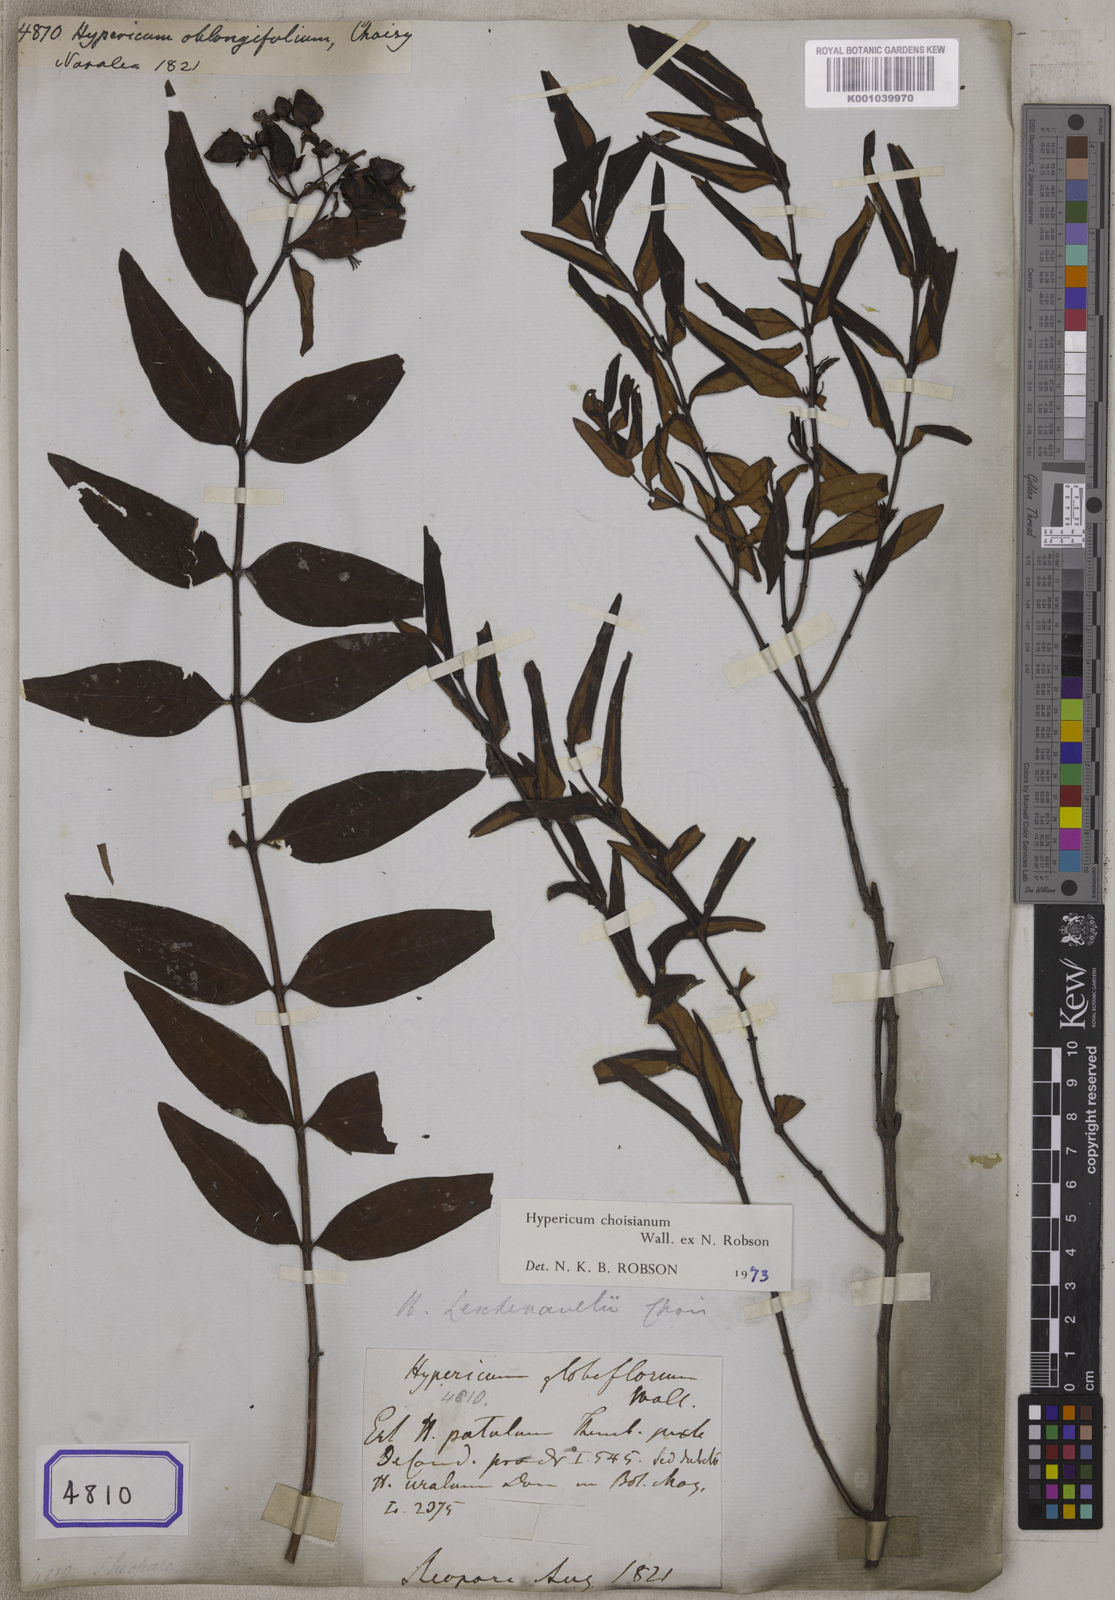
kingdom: Plantae
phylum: Tracheophyta
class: Magnoliopsida
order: Malpighiales
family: Hypericaceae
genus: Hypericum
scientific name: Hypericum oblongifolium
